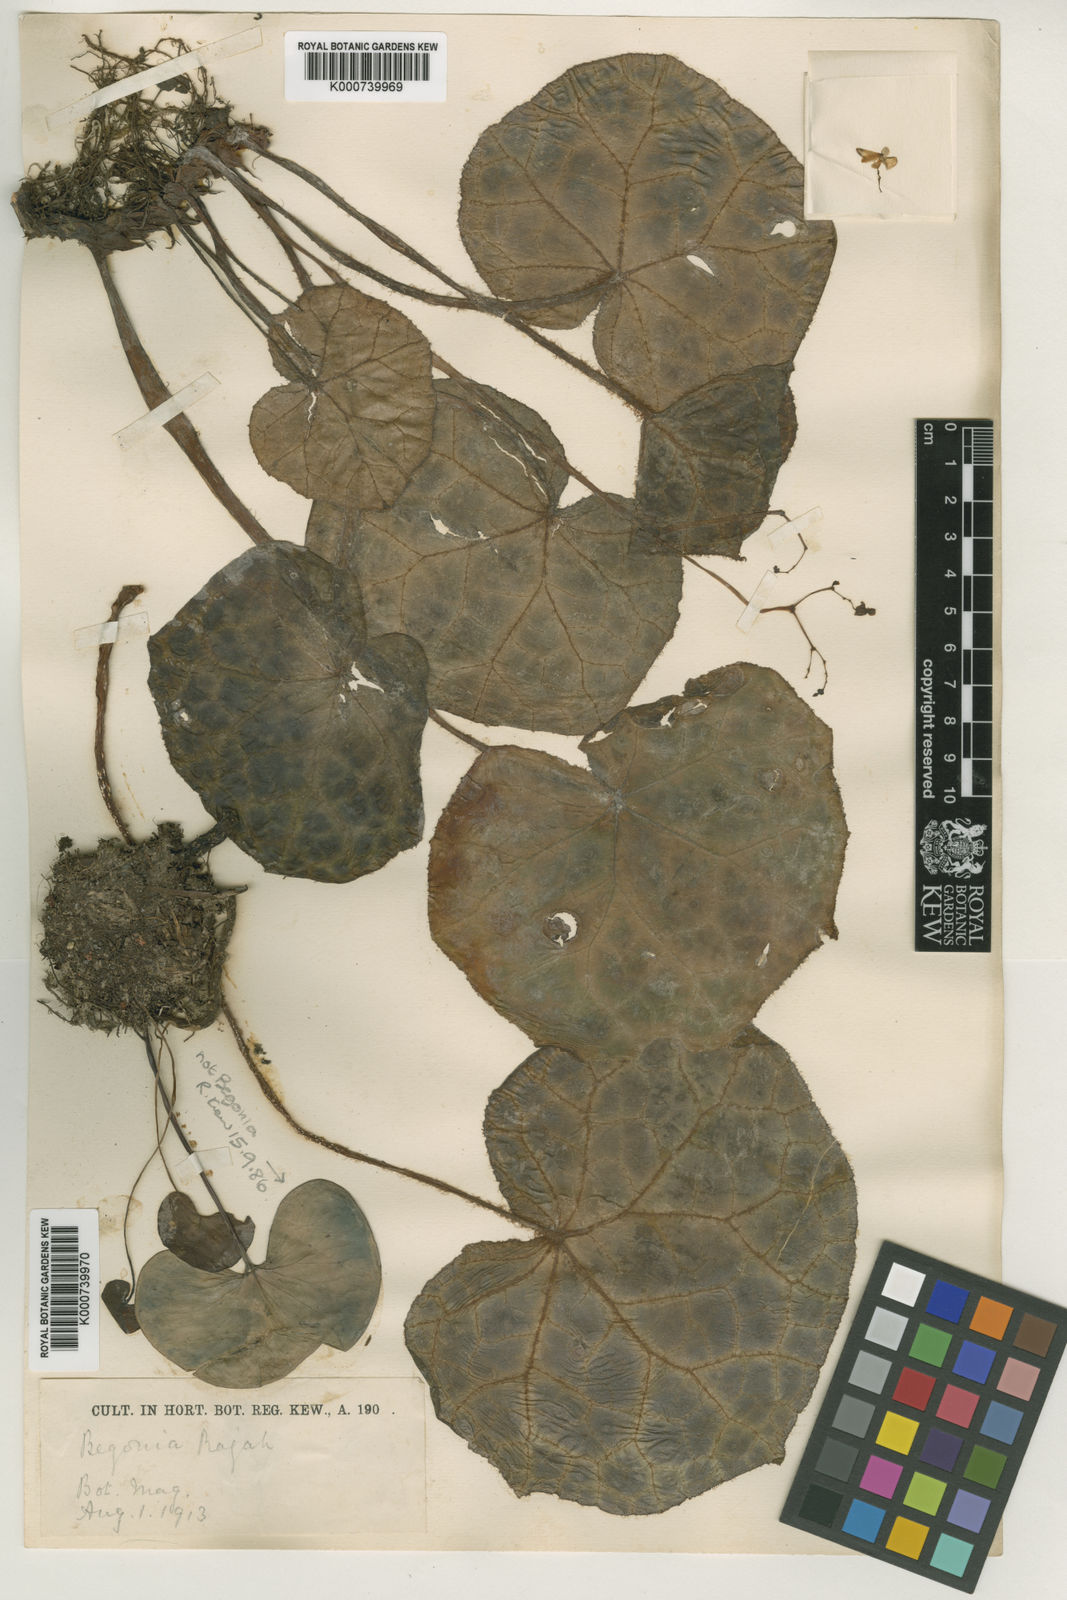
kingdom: Plantae
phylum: Tracheophyta
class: Magnoliopsida
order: Cucurbitales
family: Begoniaceae
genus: Begonia
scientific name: Begonia rajah
